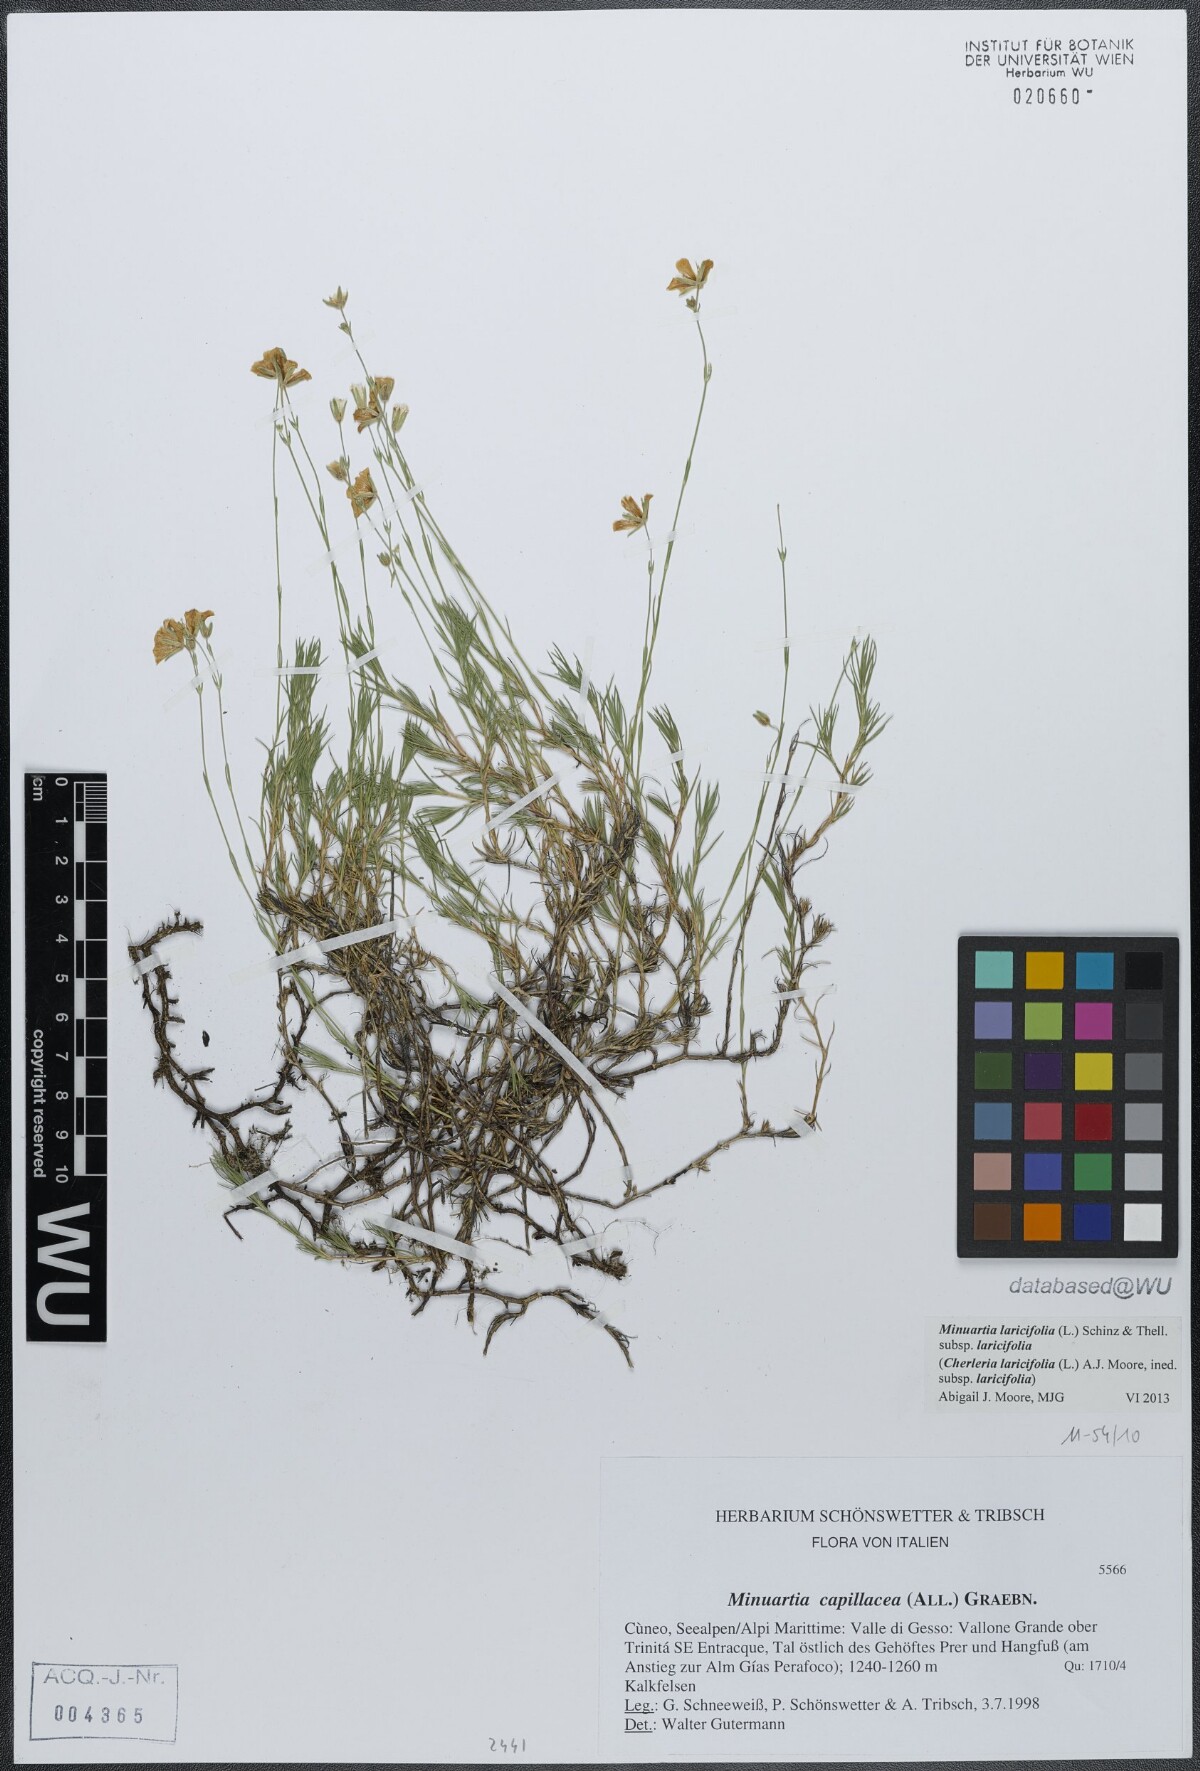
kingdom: Plantae
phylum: Tracheophyta
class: Magnoliopsida
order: Caryophyllales
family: Caryophyllaceae
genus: Cherleria
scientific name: Cherleria laricifolia
